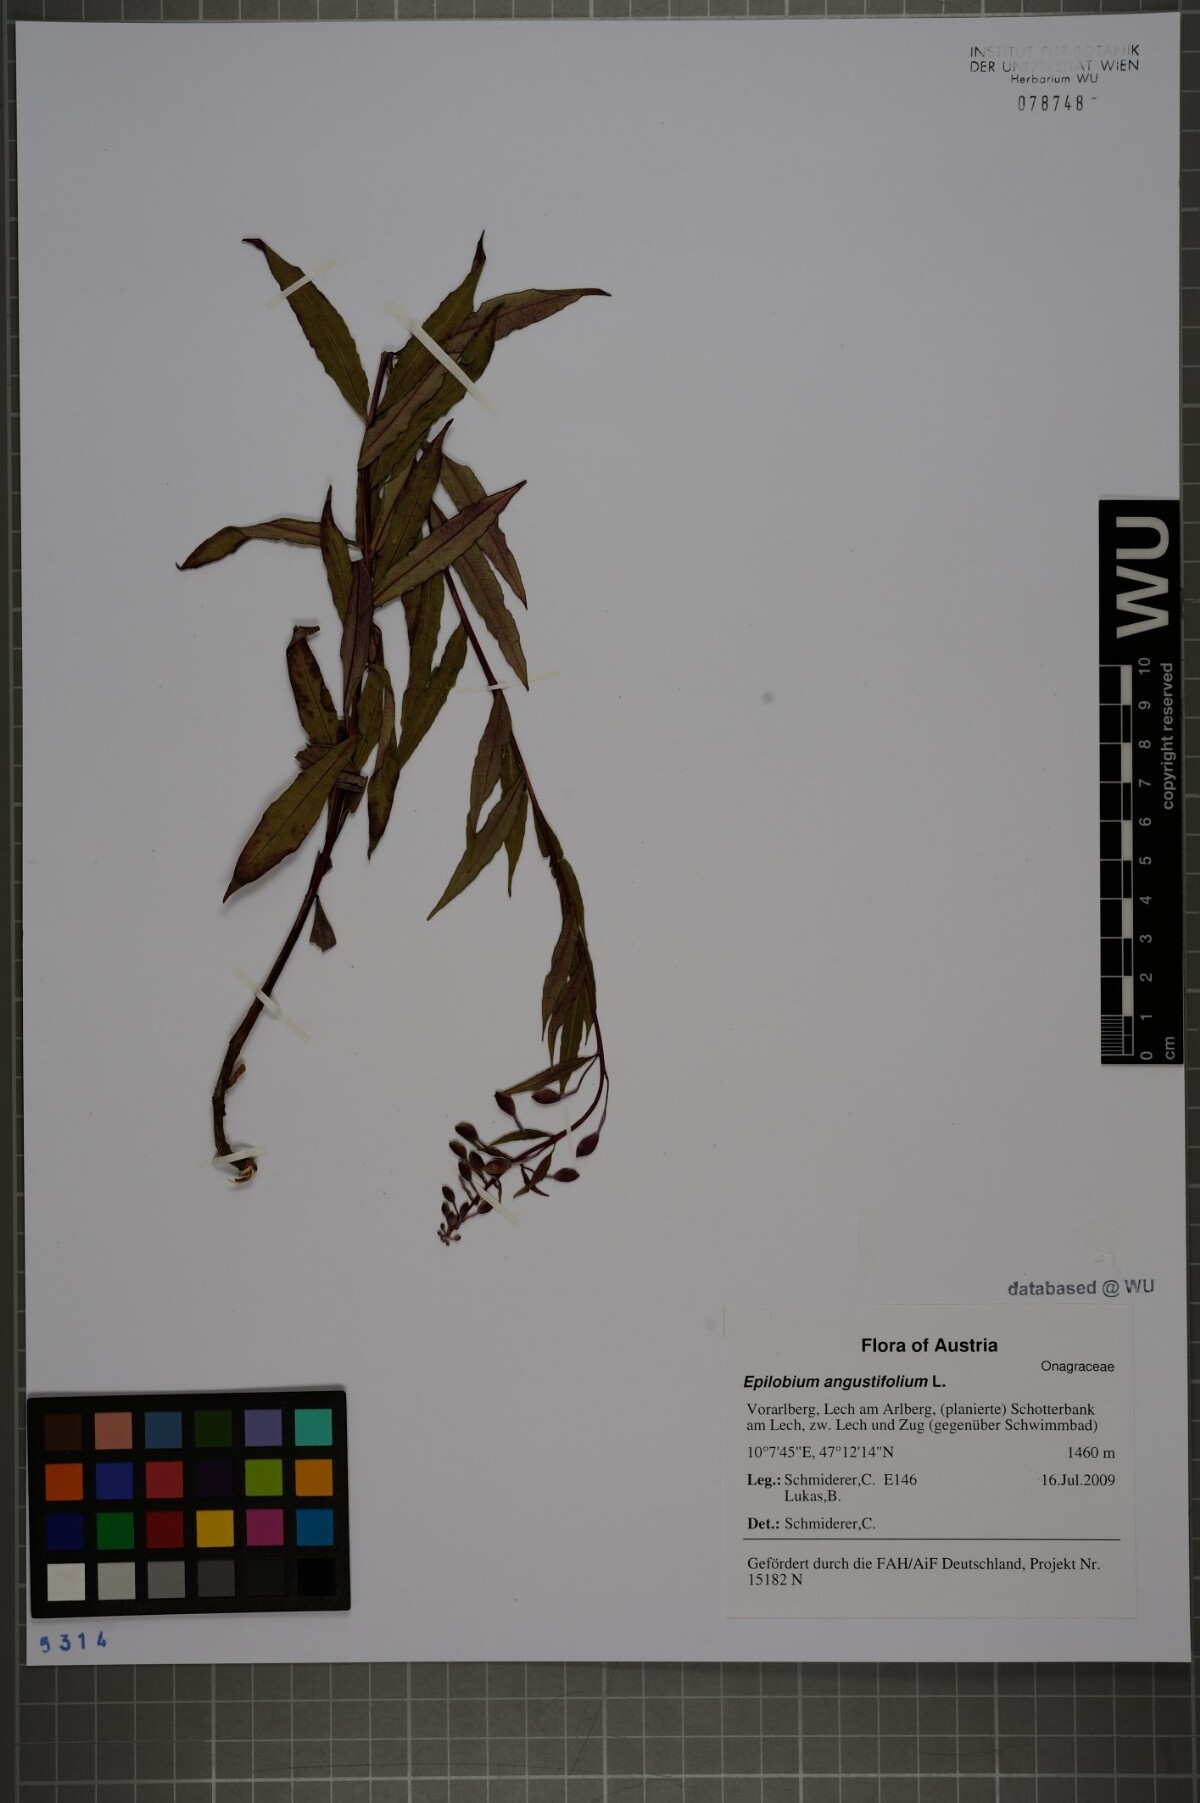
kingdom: Plantae
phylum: Tracheophyta
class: Magnoliopsida
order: Myrtales
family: Onagraceae
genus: Chamaenerion
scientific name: Chamaenerion angustifolium
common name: Fireweed
